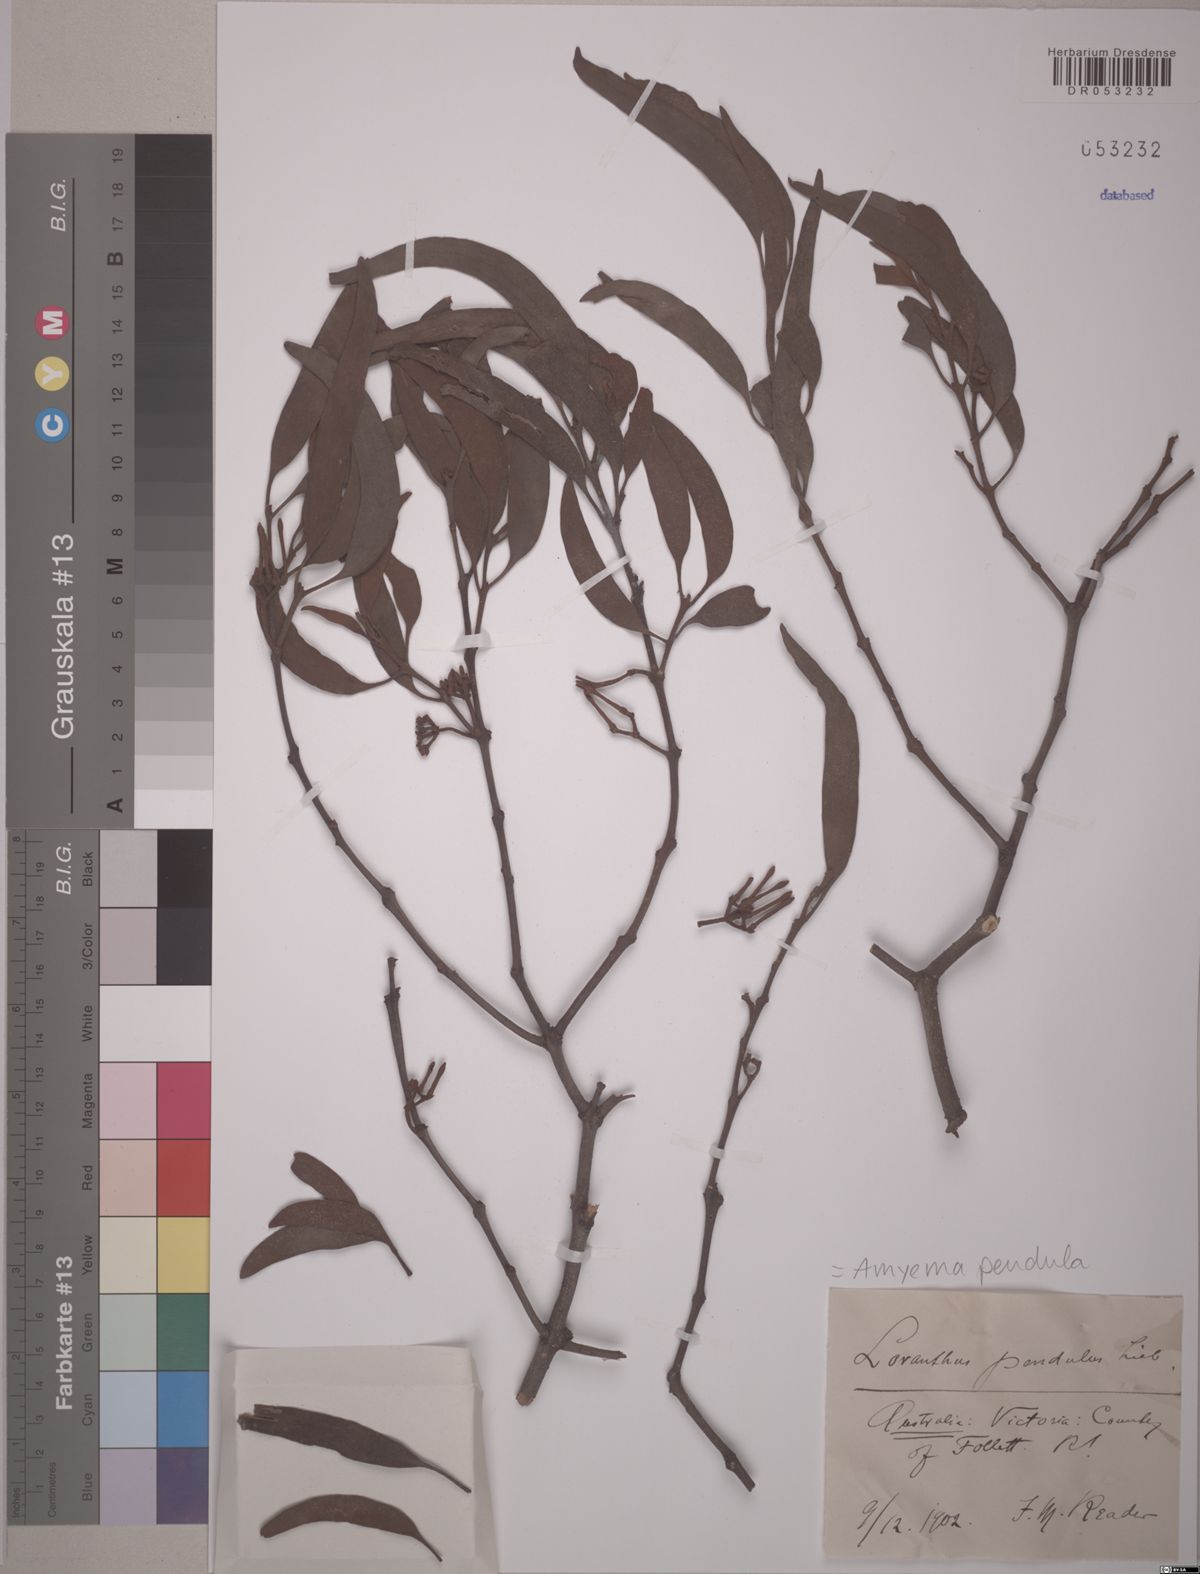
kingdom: Plantae
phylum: Tracheophyta
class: Magnoliopsida
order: Santalales
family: Loranthaceae
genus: Amyema
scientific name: Amyema pendula
